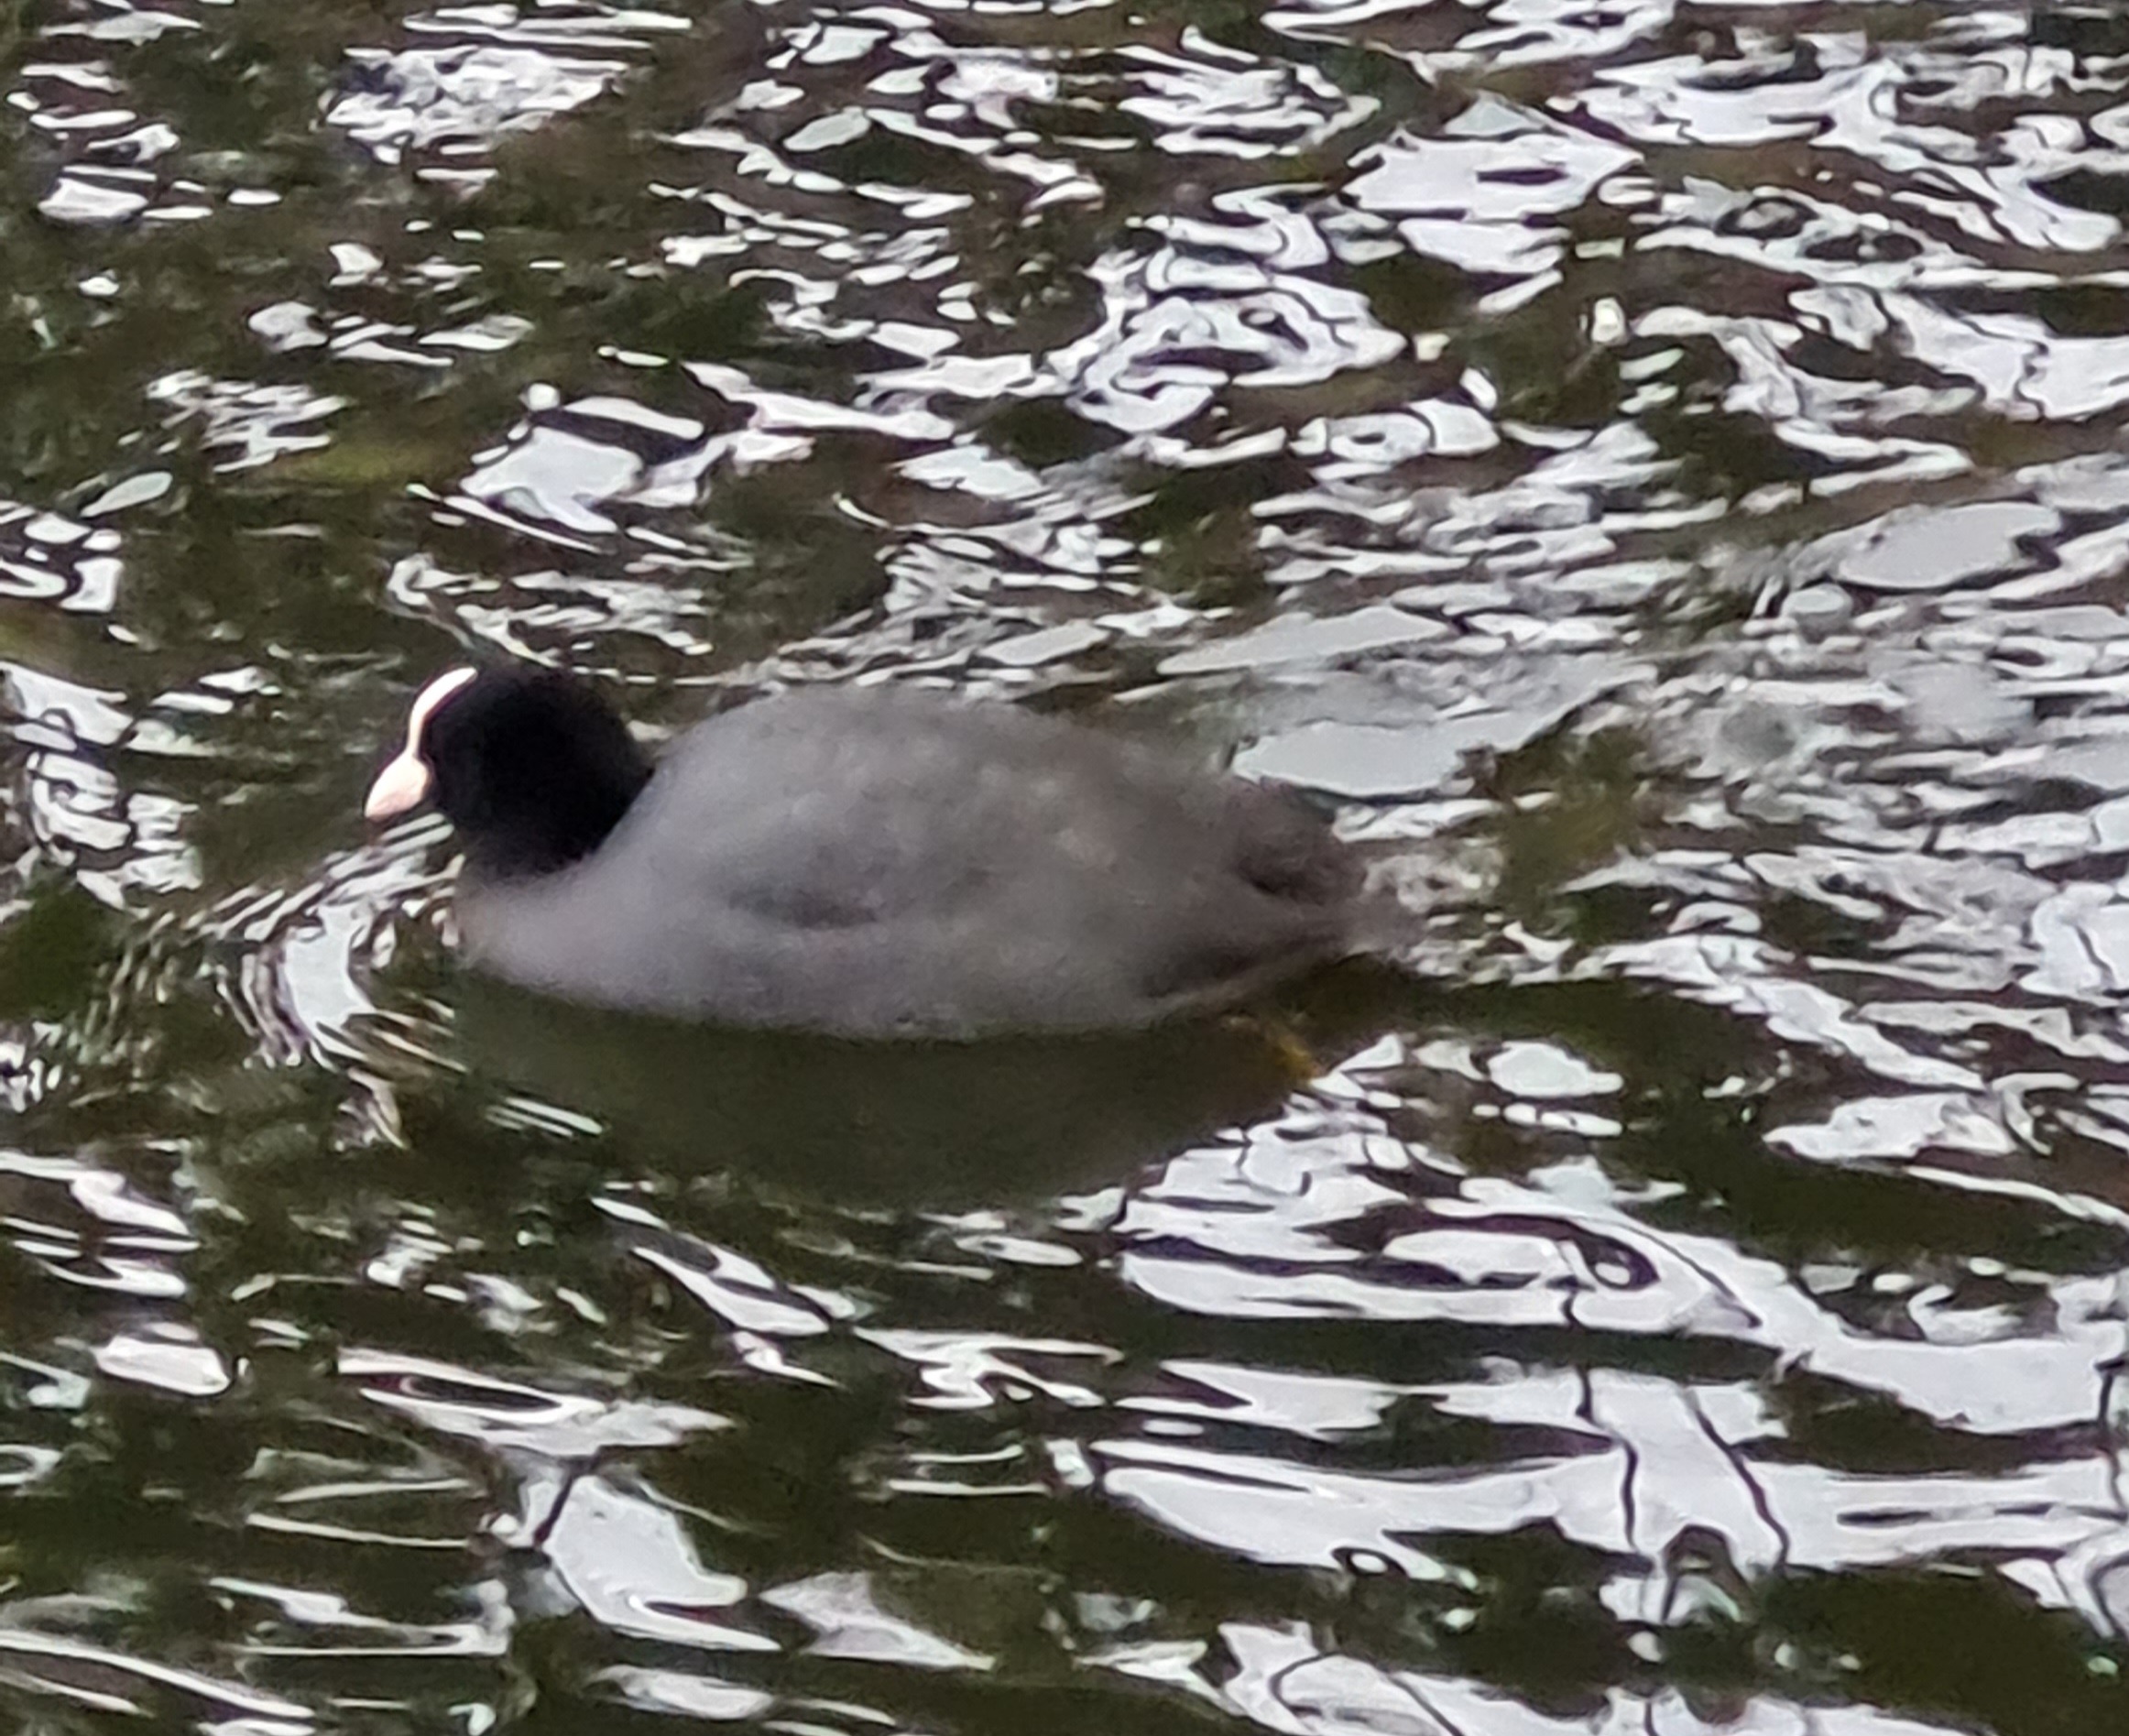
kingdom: Animalia
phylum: Chordata
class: Aves
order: Gruiformes
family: Rallidae
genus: Fulica
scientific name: Fulica atra
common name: Blishøne
